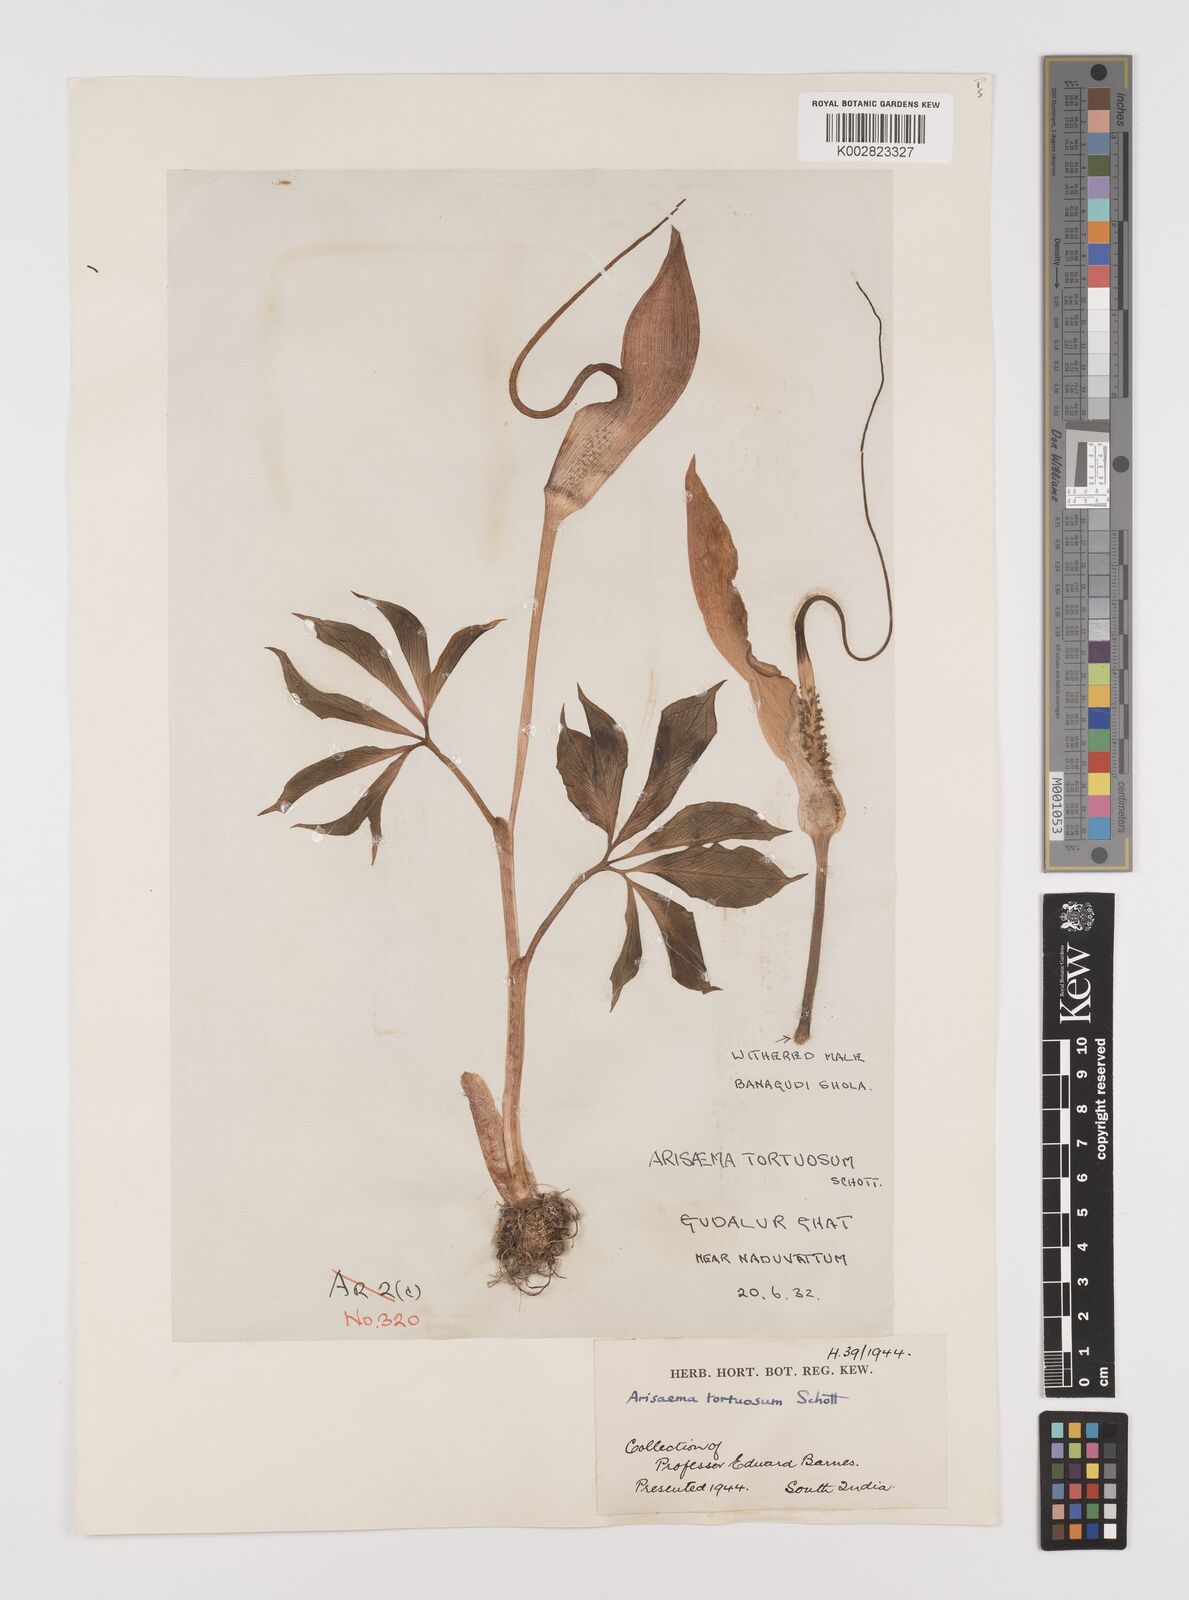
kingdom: Plantae
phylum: Tracheophyta
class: Liliopsida
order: Alismatales
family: Araceae
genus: Arisaema
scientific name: Arisaema tortuosum
